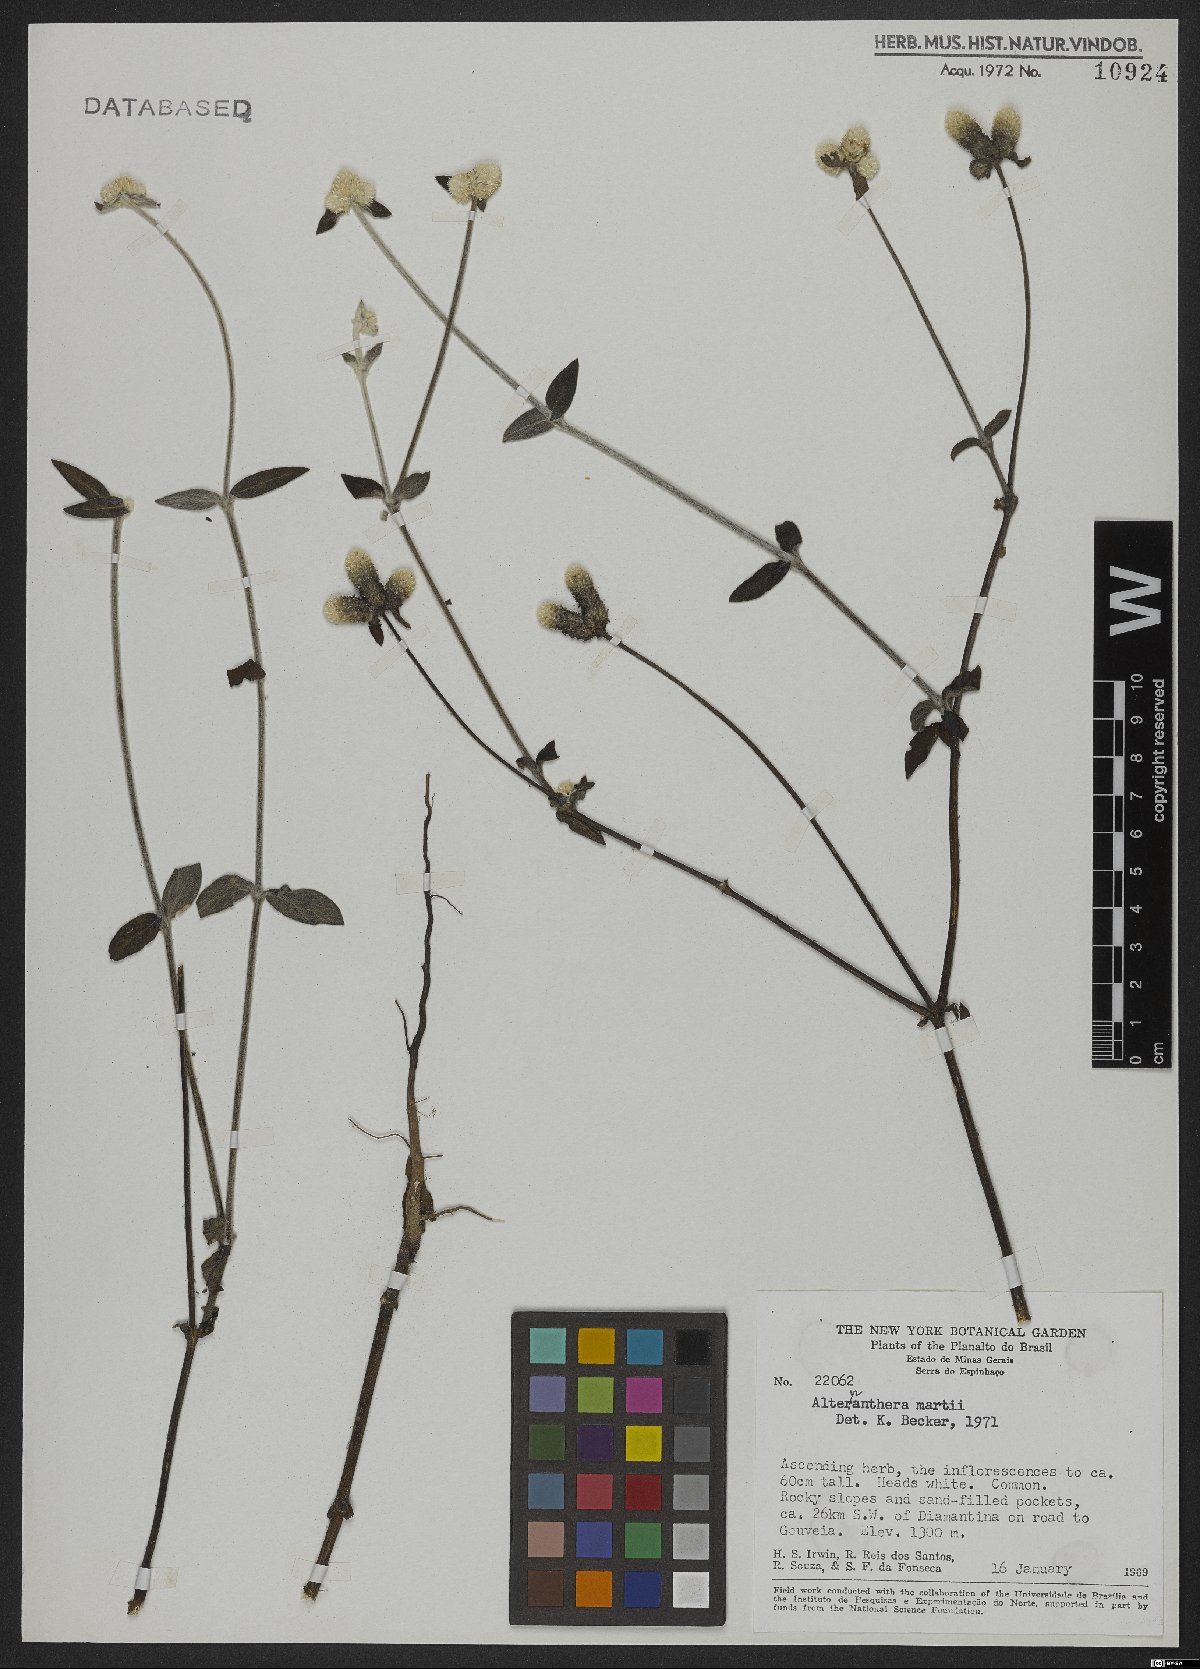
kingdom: Plantae
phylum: Tracheophyta
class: Magnoliopsida
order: Caryophyllales
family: Amaranthaceae
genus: Alternanthera
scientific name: Alternanthera martii
